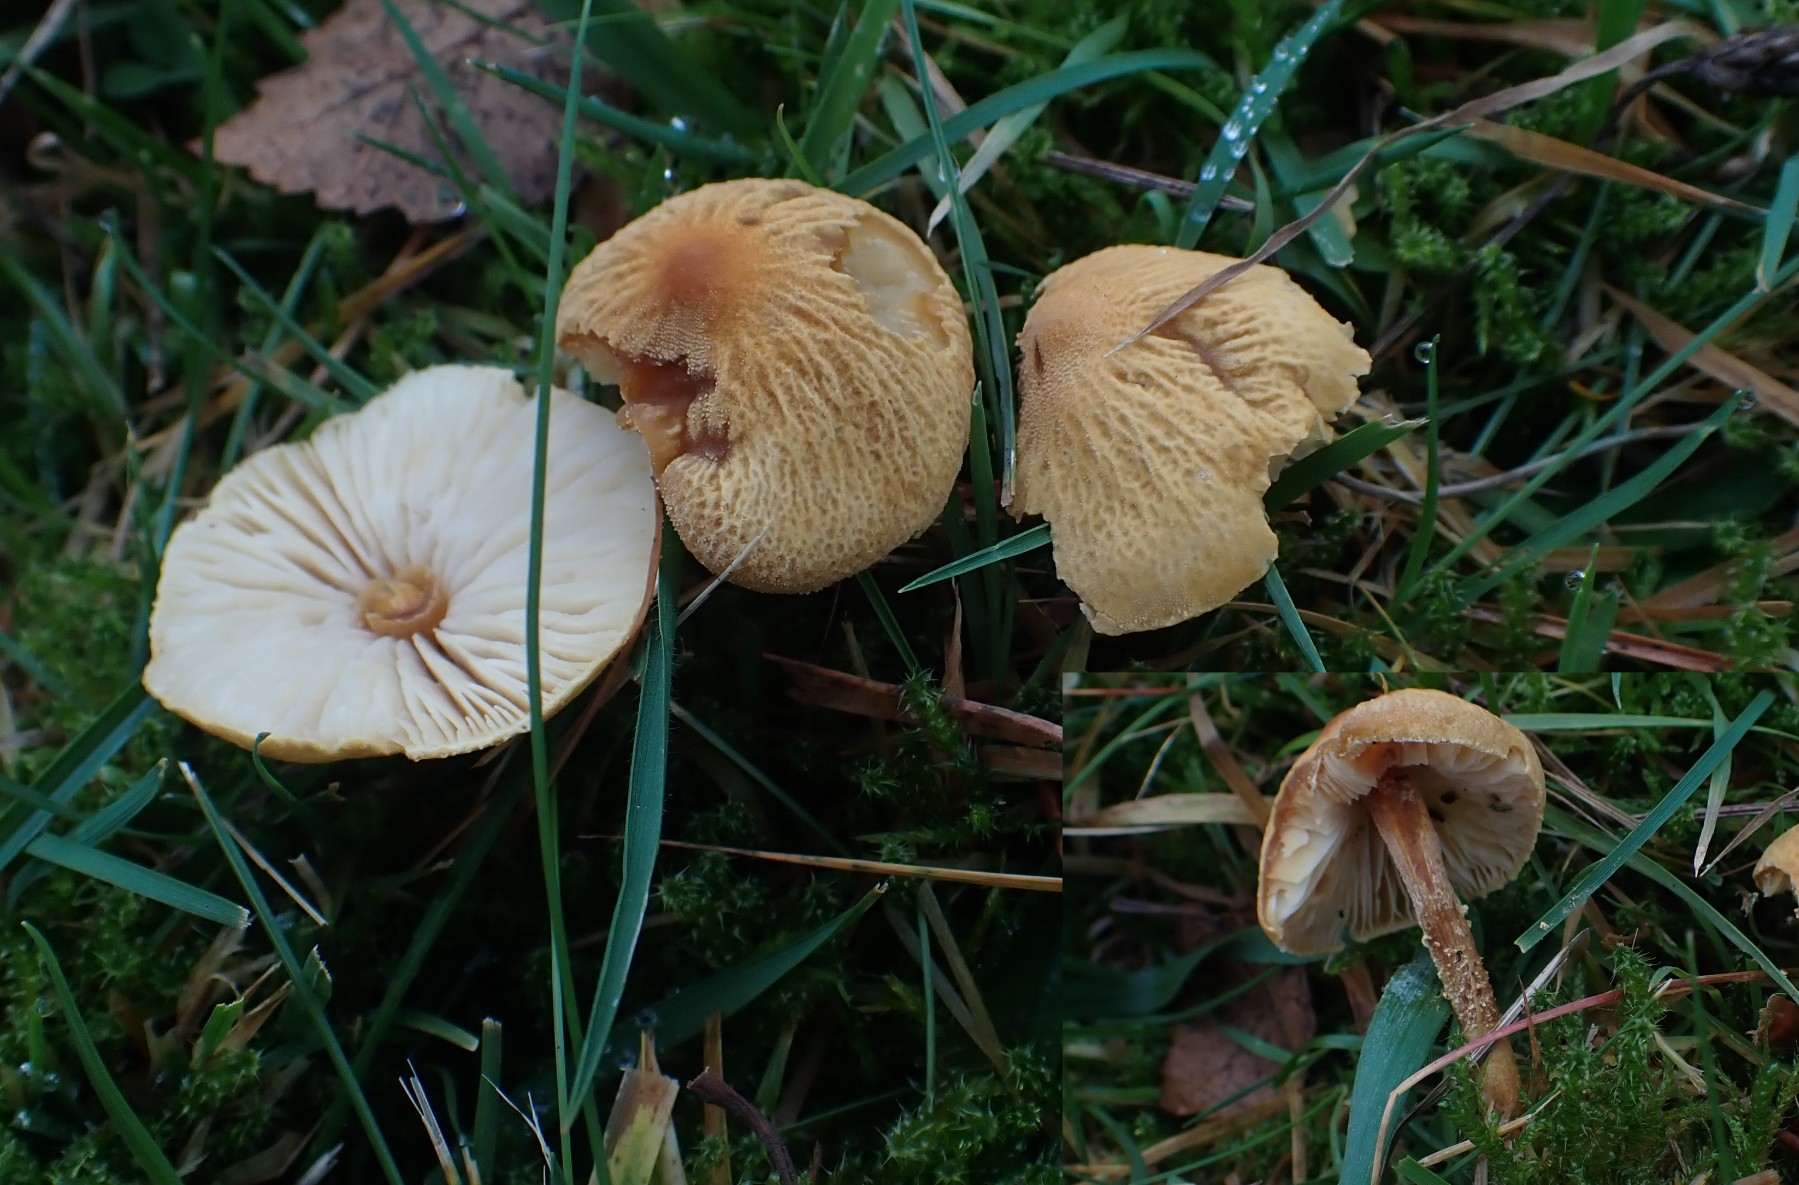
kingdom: Fungi
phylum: Basidiomycota
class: Agaricomycetes
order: Agaricales
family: Tricholomataceae
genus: Cystoderma
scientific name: Cystoderma amianthinum
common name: okkergul grynhat
